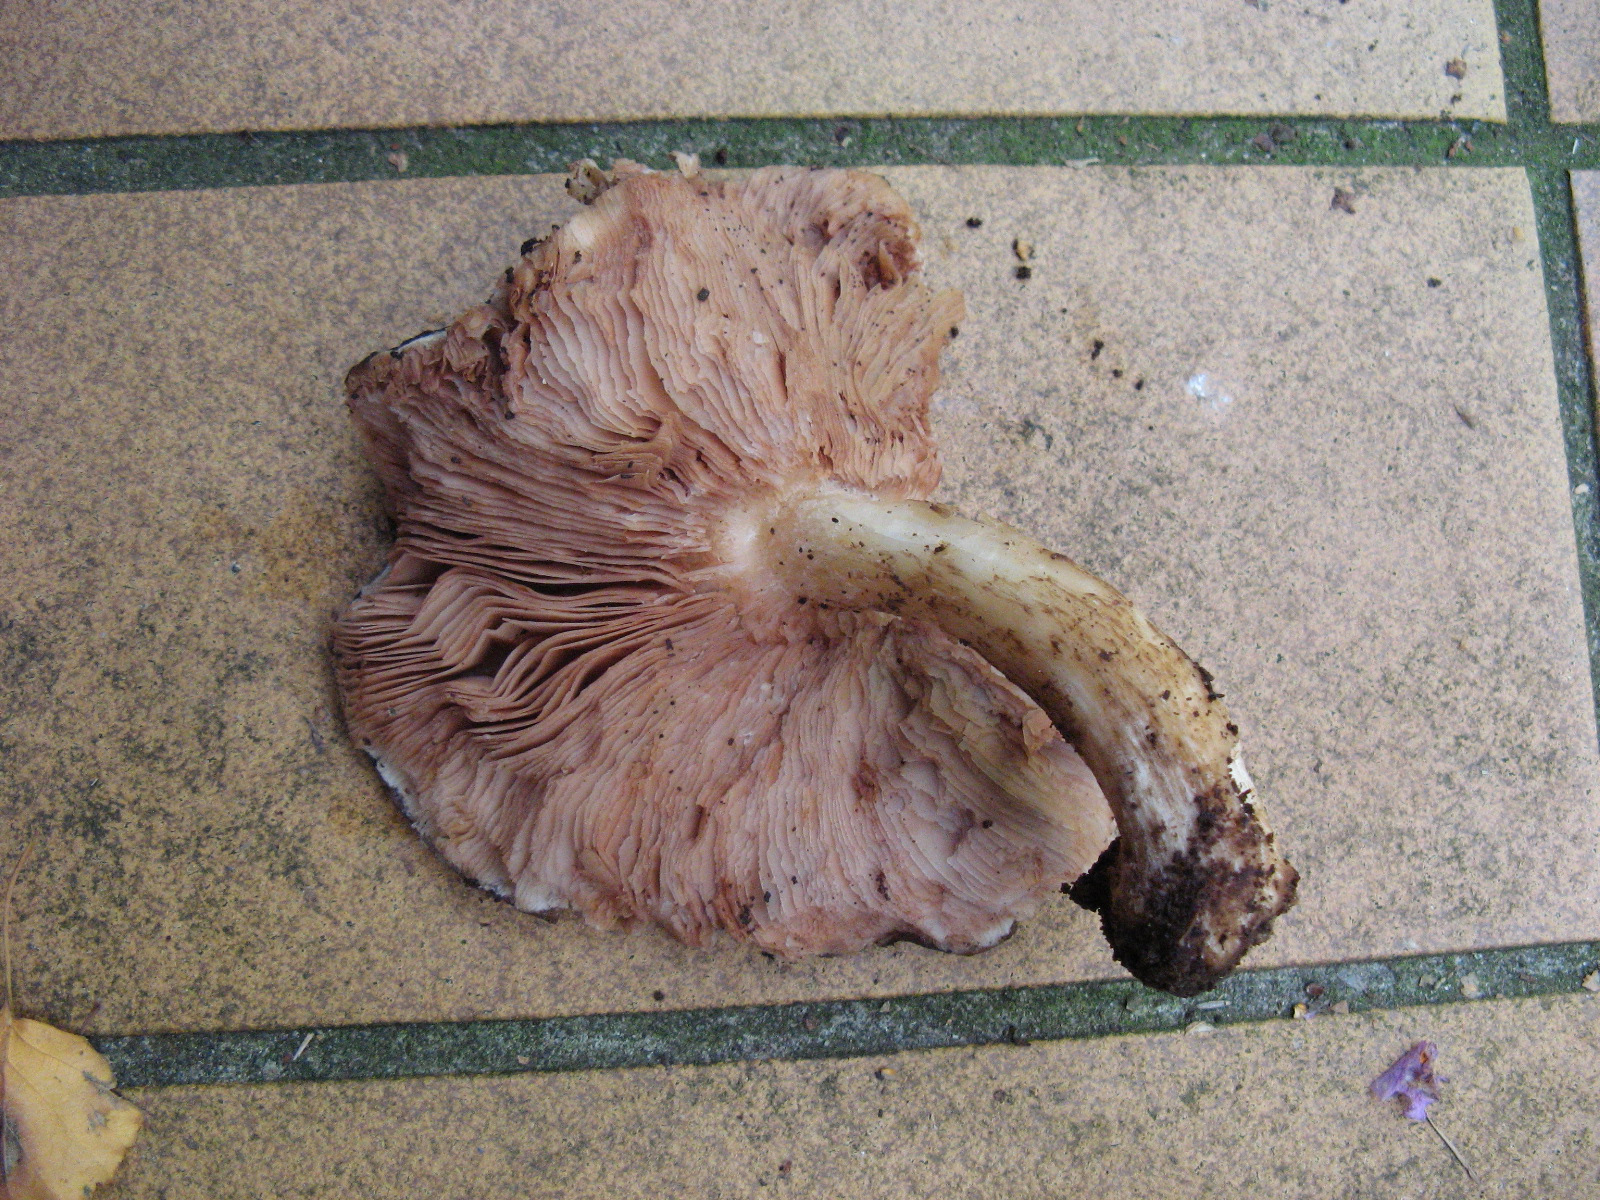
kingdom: Fungi
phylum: Basidiomycota
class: Agaricomycetes
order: Agaricales
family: Pluteaceae
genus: Pluteus
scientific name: Pluteus cervinus
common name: sodfarvet skærmhat
